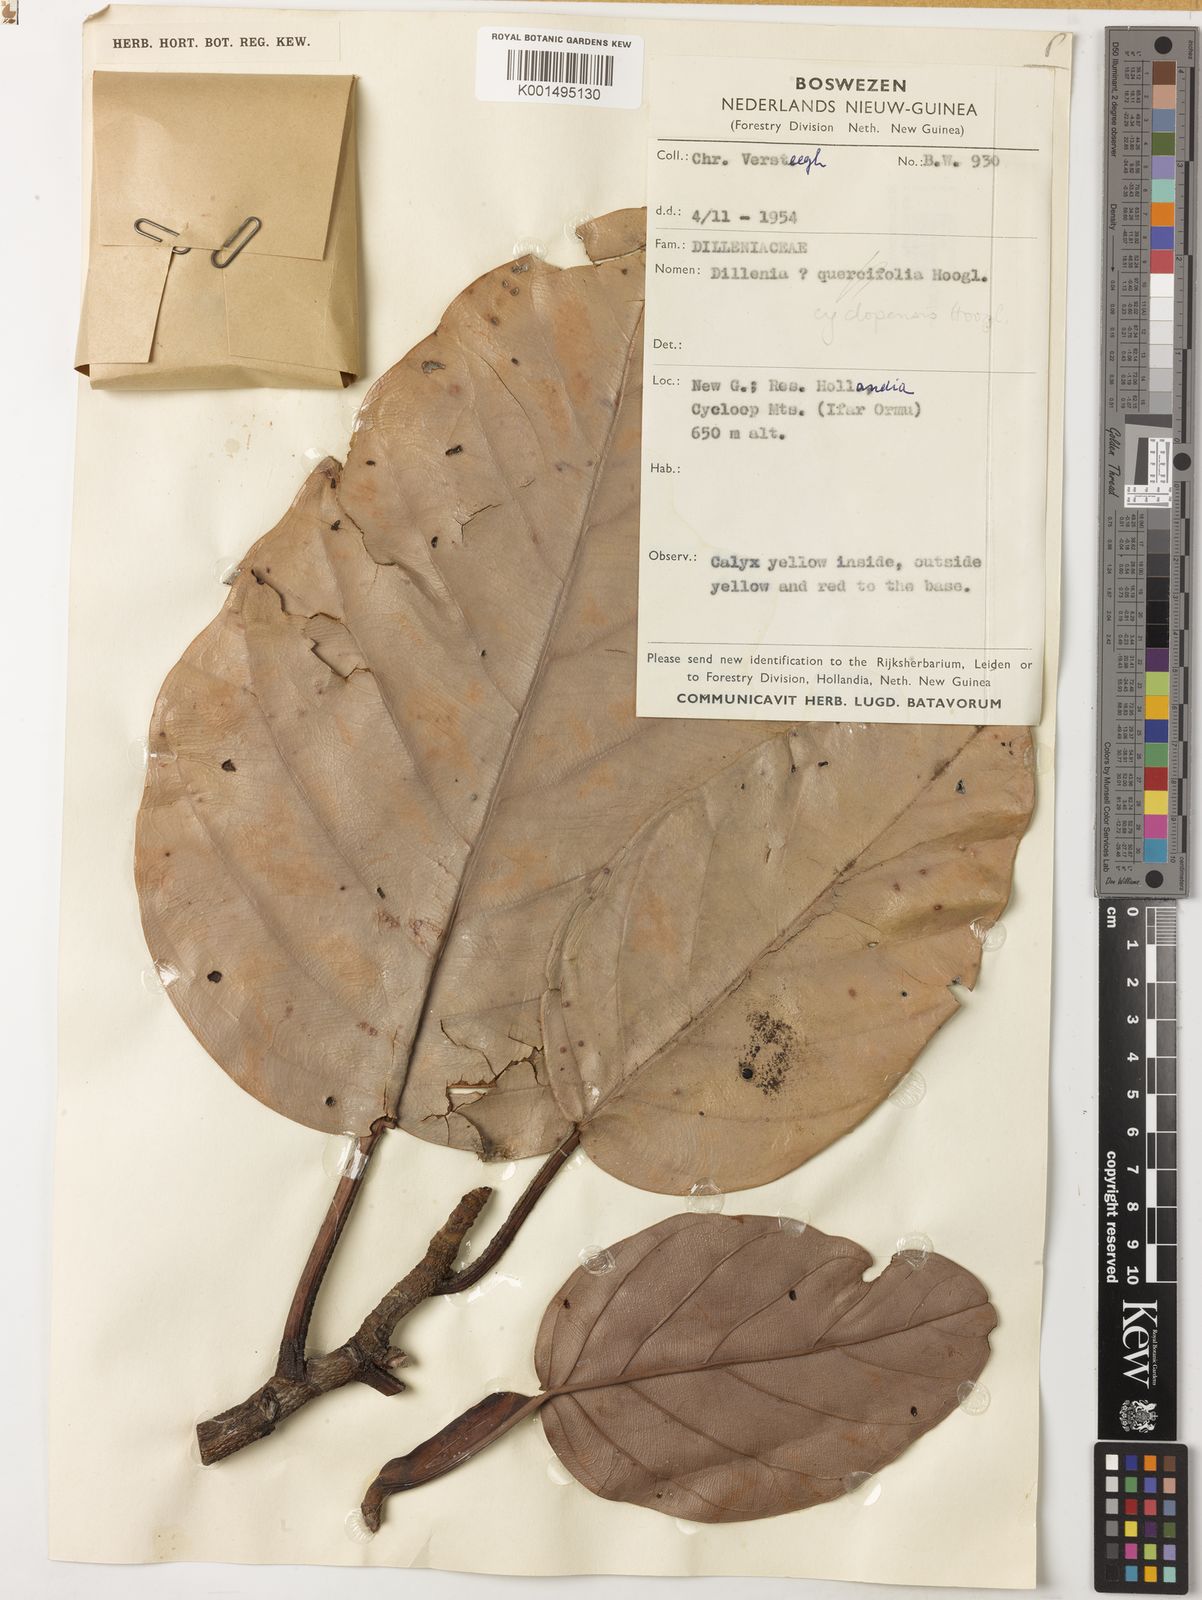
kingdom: Plantae
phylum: Tracheophyta
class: Magnoliopsida
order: Dilleniales
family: Dilleniaceae
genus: Dillenia
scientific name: Dillenia cyclopensis
